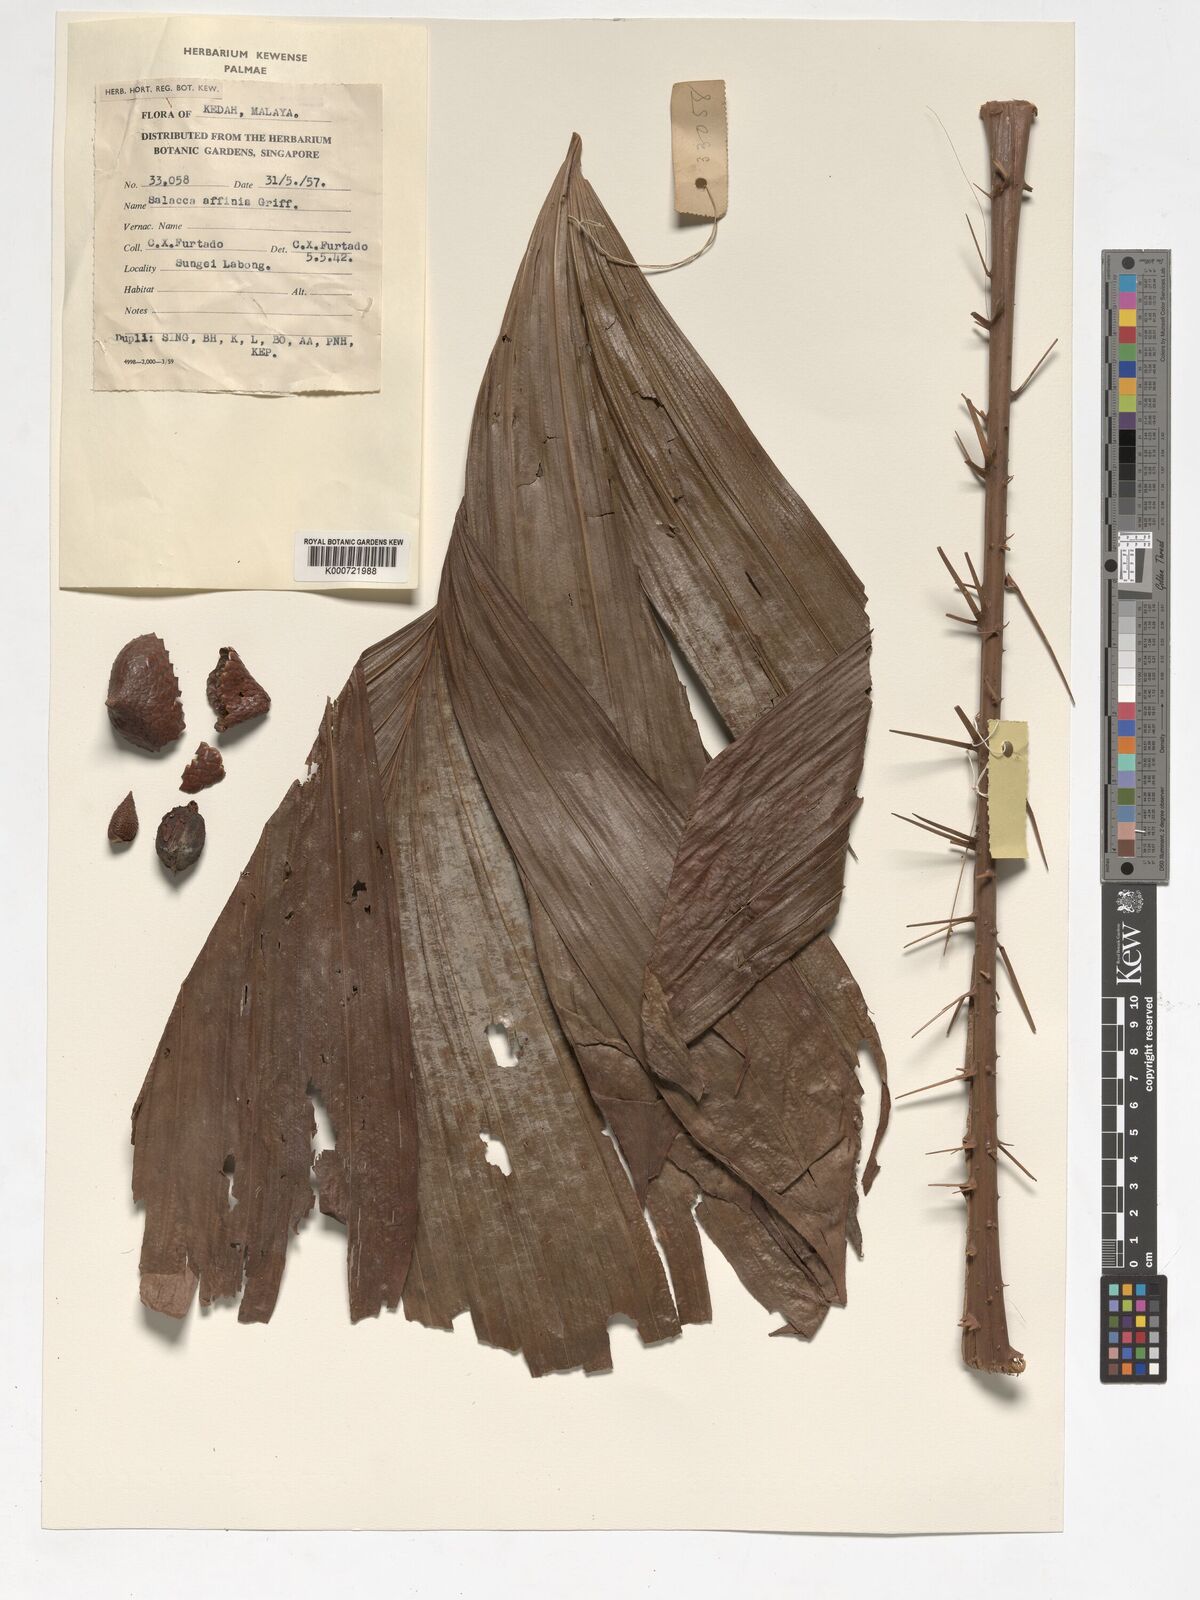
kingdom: Plantae
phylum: Tracheophyta
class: Liliopsida
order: Arecales
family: Arecaceae
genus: Salacca
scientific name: Salacca affinis
